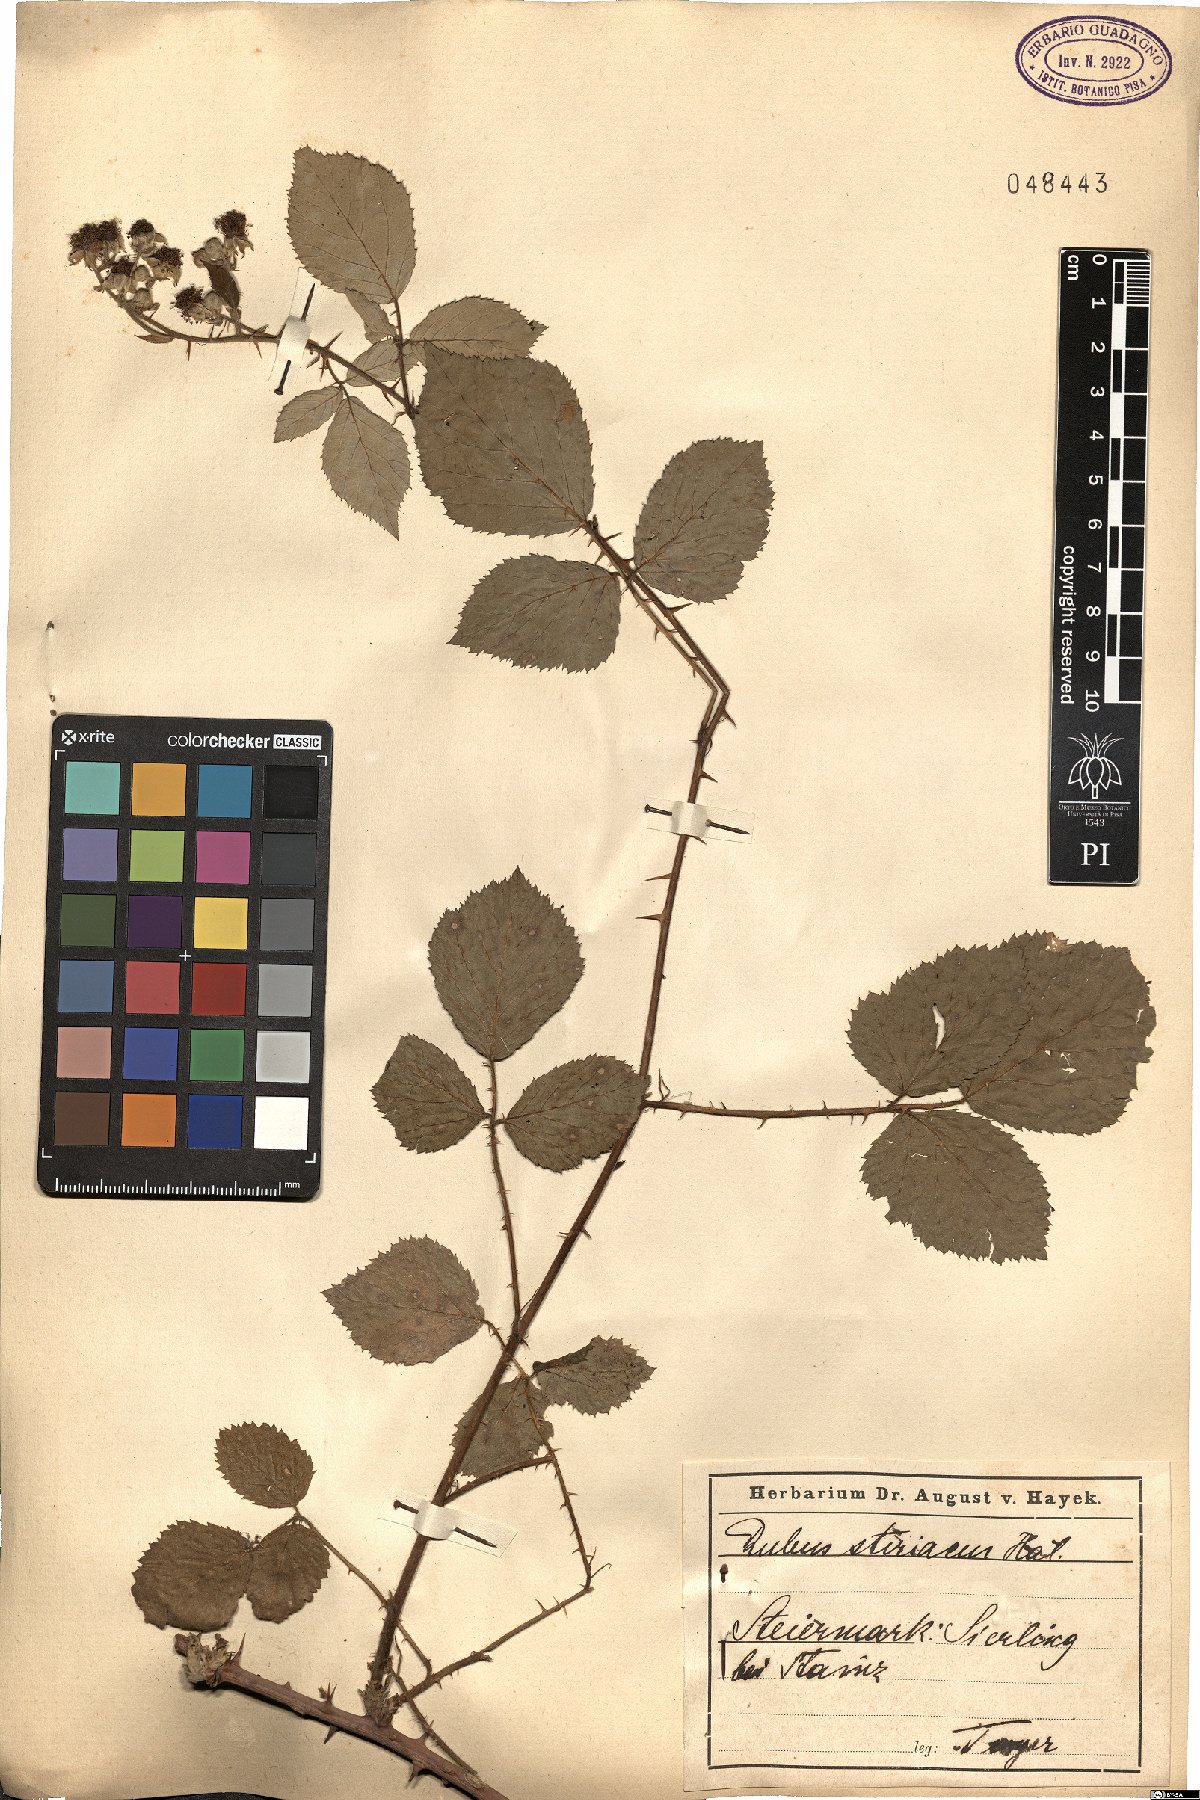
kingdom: Plantae
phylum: Tracheophyta
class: Magnoliopsida
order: Rosales
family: Rosaceae
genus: Rubus
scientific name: Rubus styriacus
